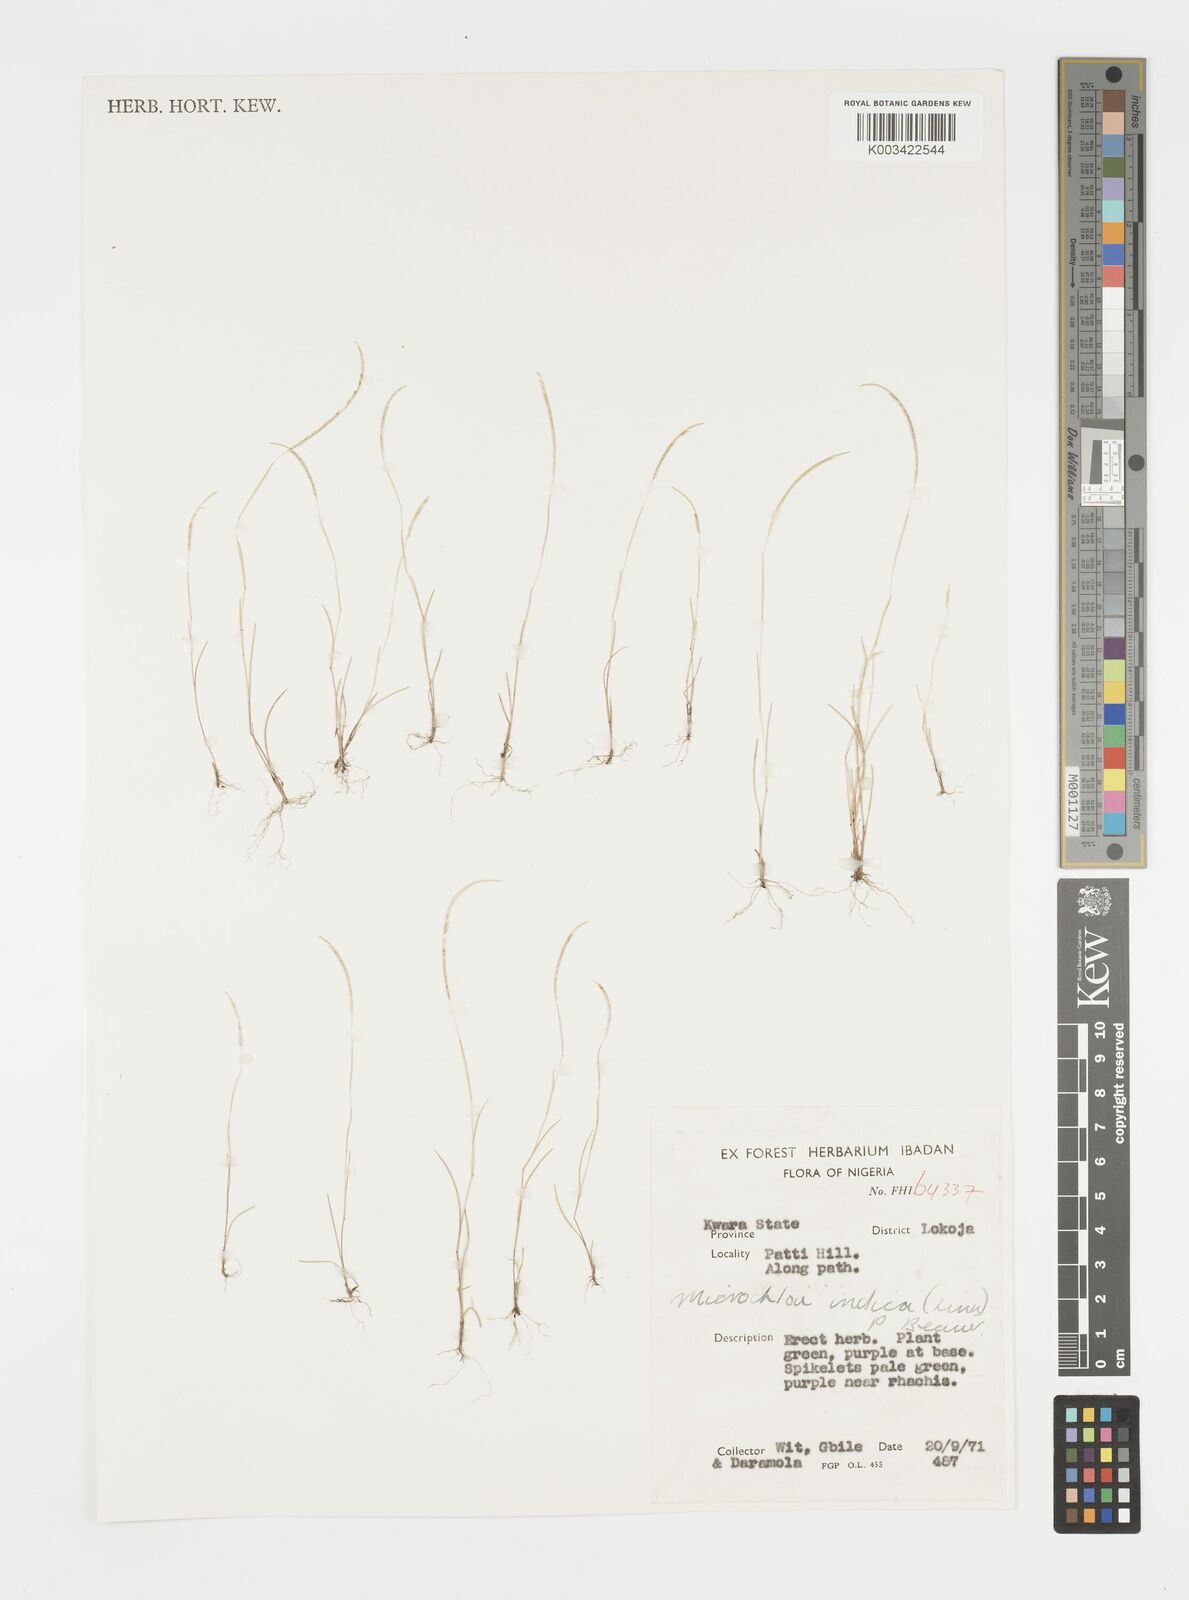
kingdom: Plantae
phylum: Tracheophyta
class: Liliopsida
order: Poales
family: Poaceae
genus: Microchloa
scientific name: Microchloa indica
